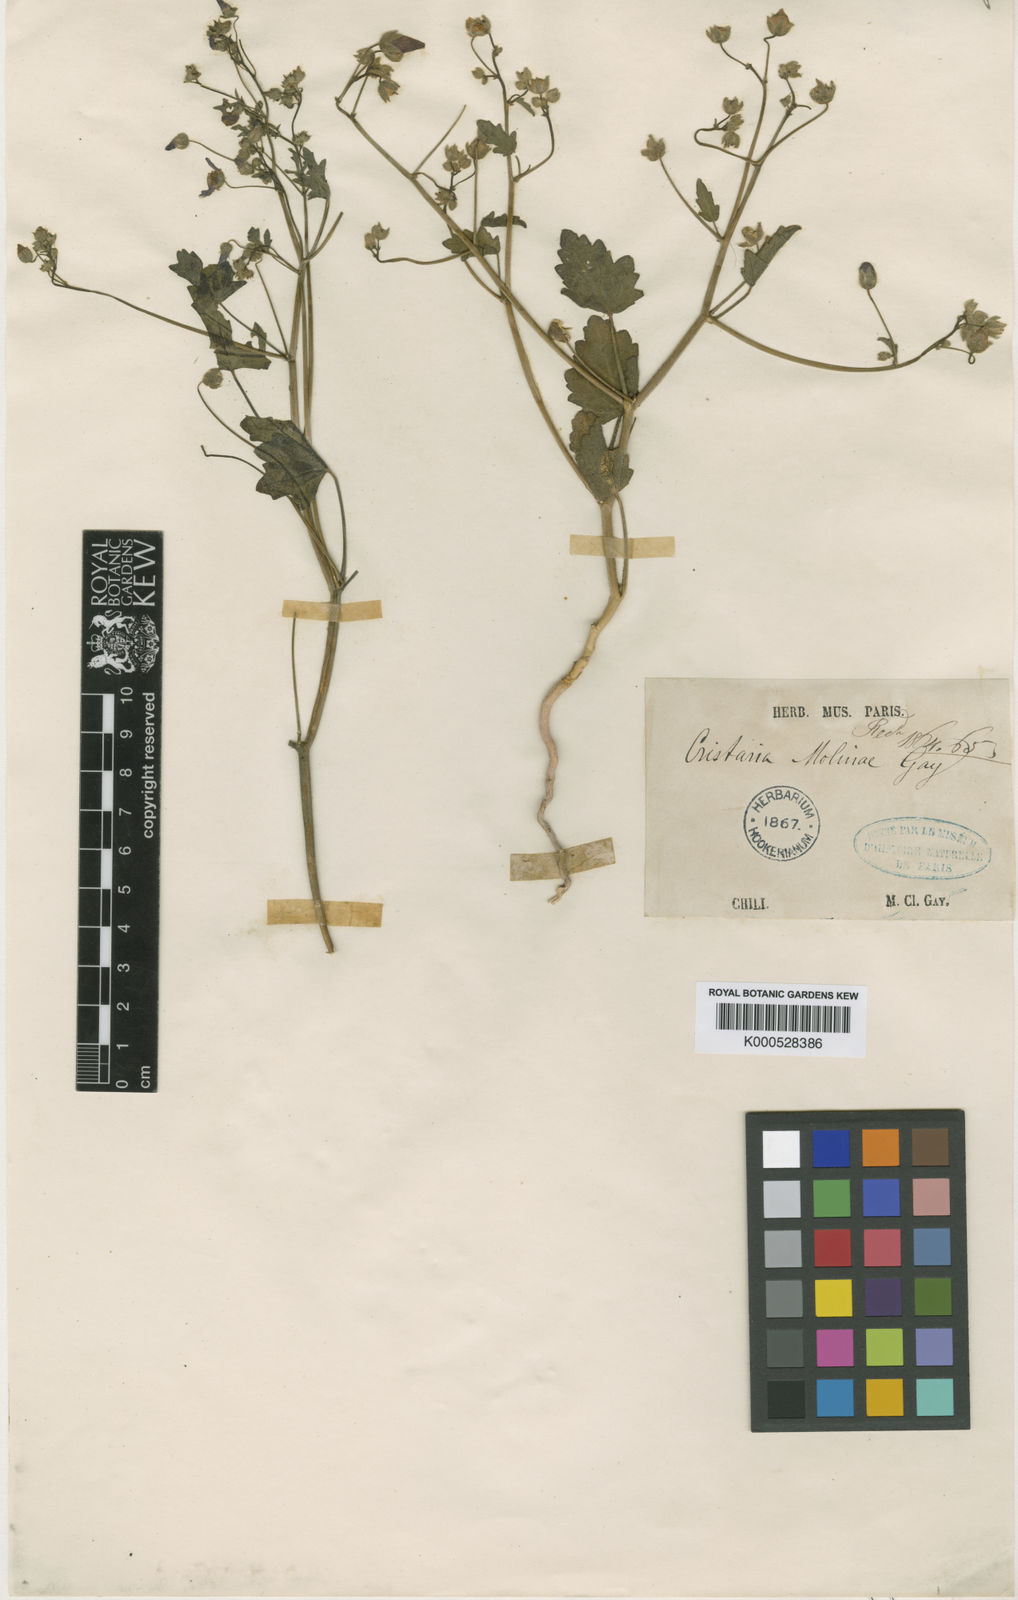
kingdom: Plantae
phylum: Tracheophyta
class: Magnoliopsida
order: Malvales
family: Malvaceae
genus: Cristaria
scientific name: Cristaria molinae
